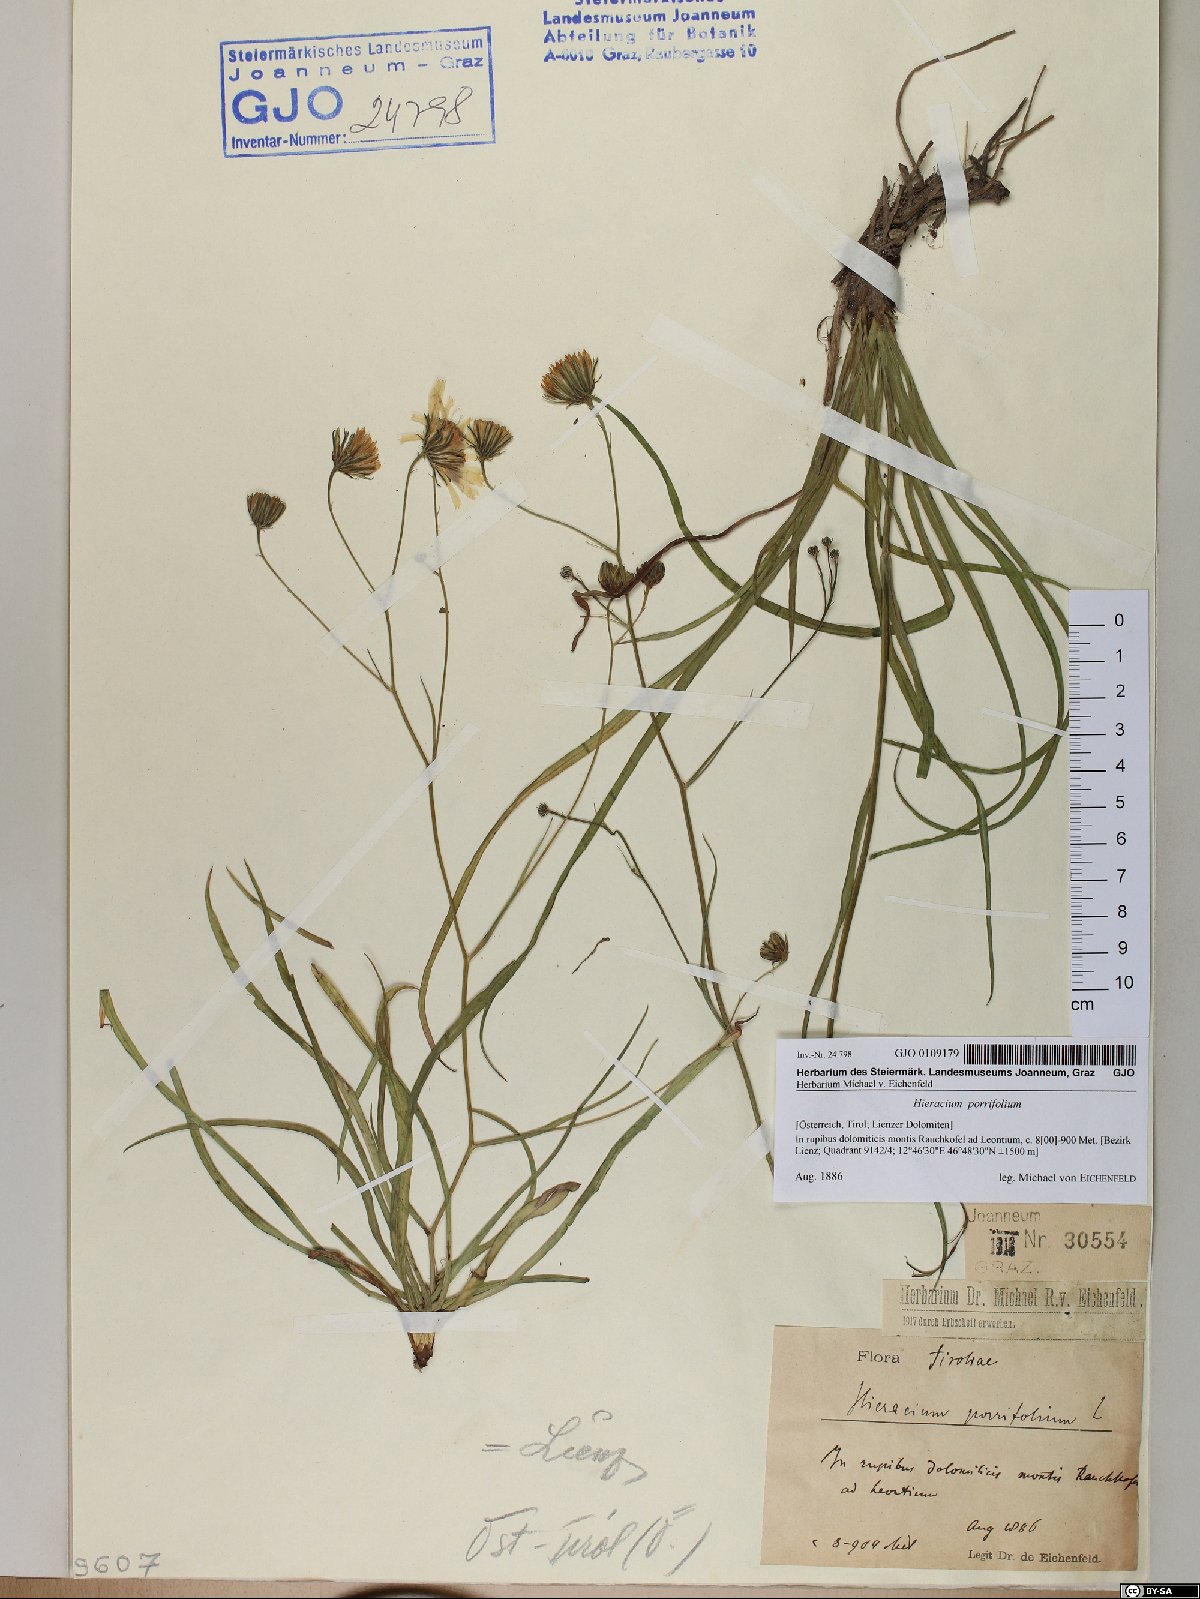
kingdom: Plantae
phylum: Tracheophyta
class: Magnoliopsida
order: Asterales
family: Asteraceae
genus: Hieracium
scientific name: Hieracium porrifolium
